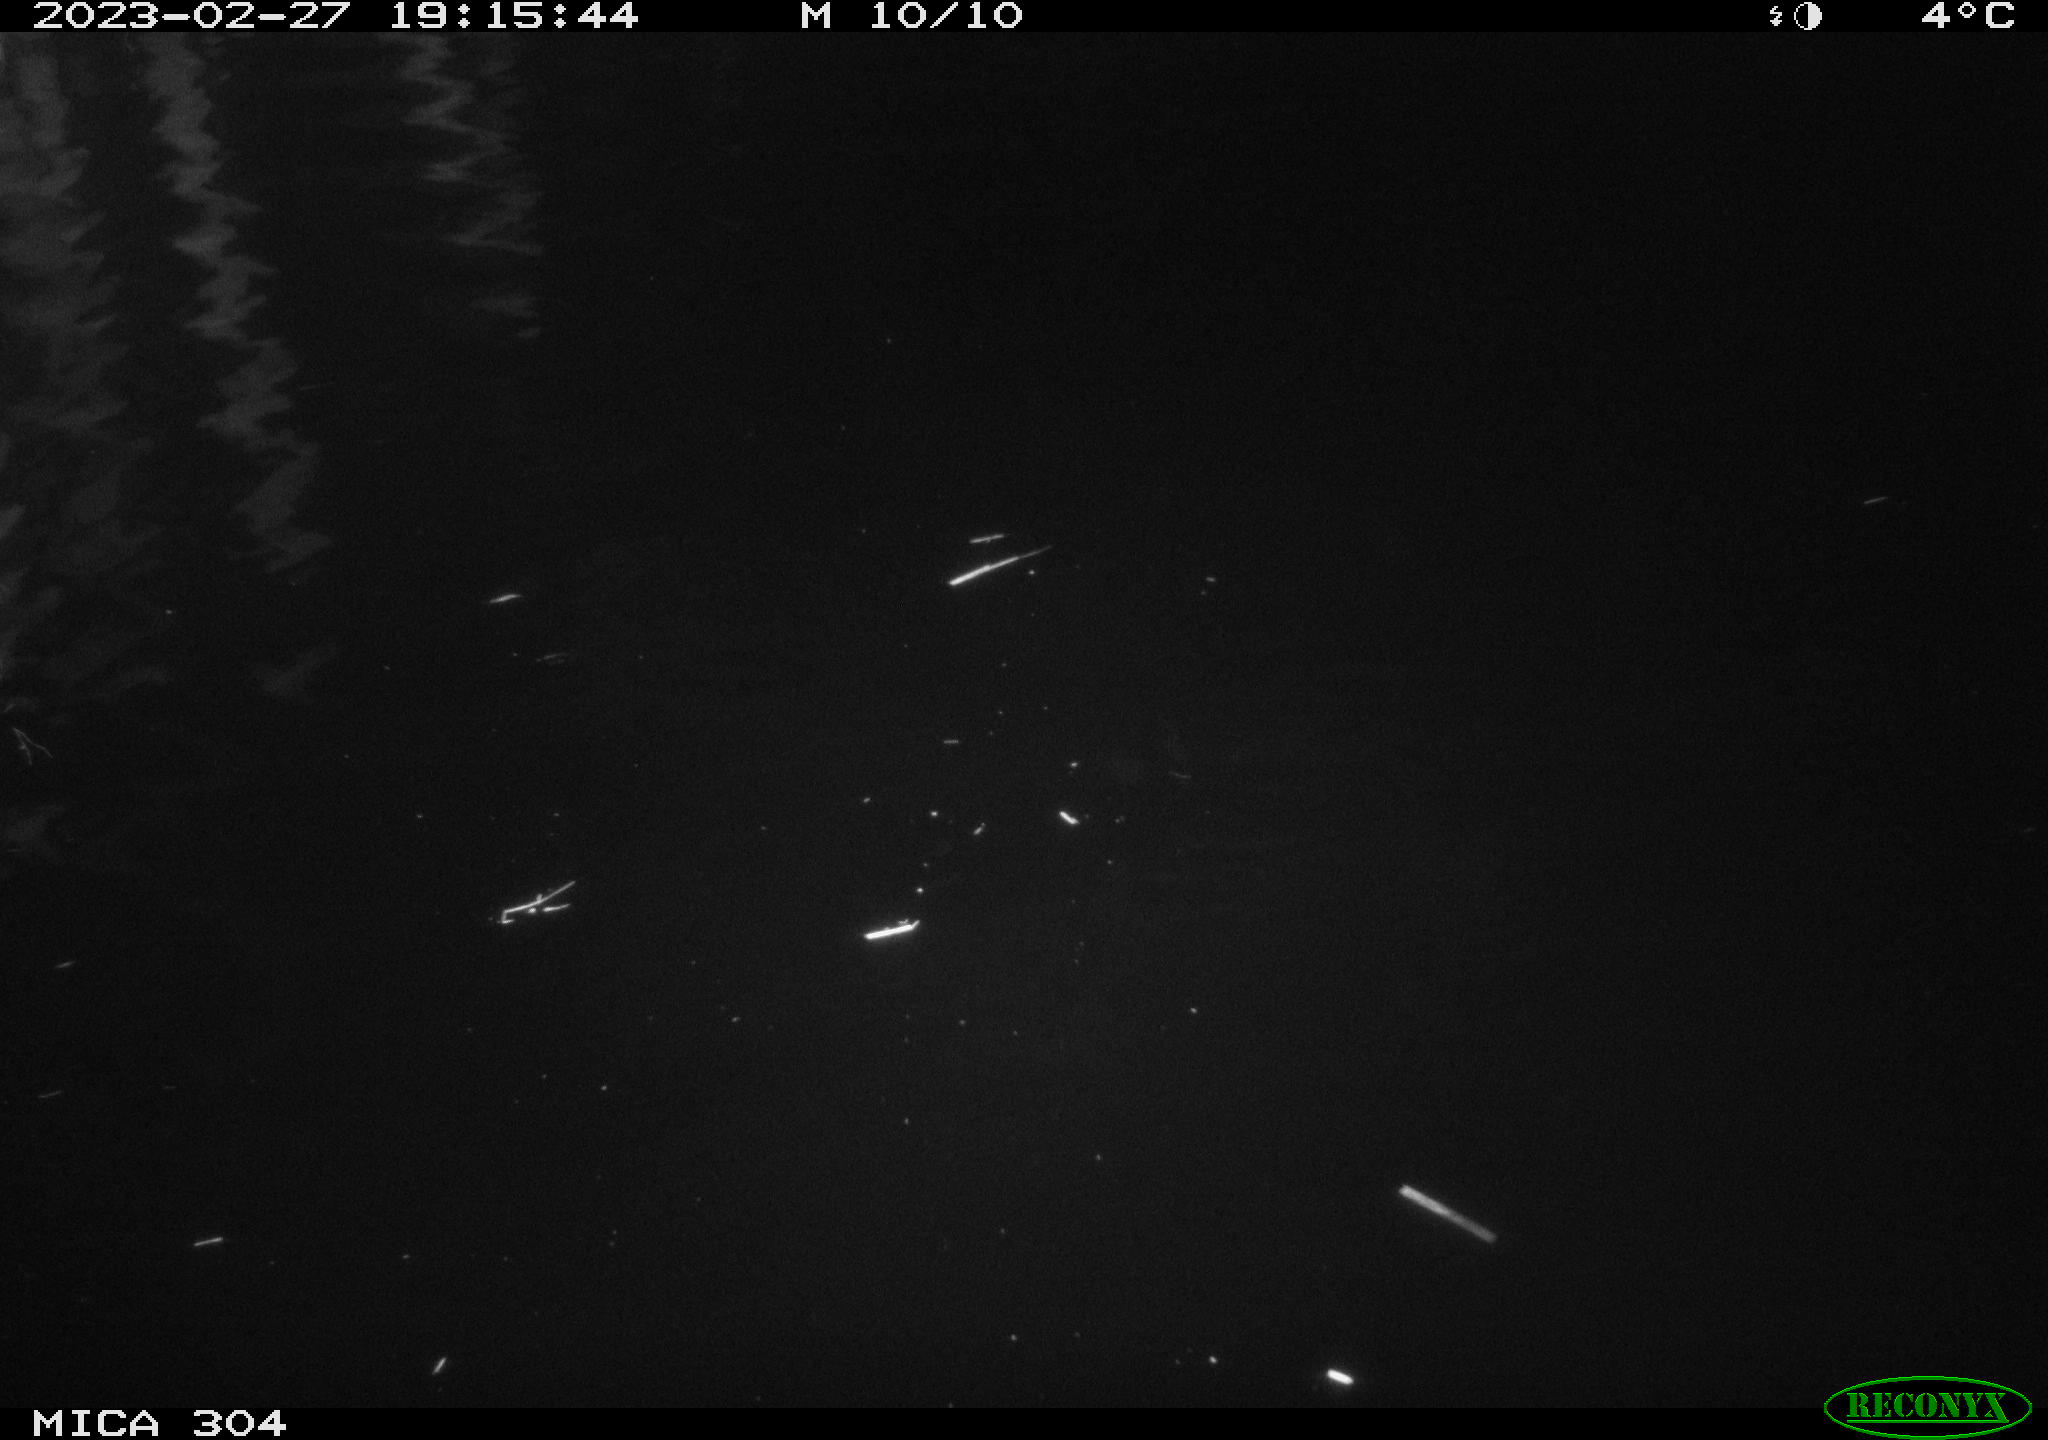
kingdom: Animalia
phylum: Chordata
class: Mammalia
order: Rodentia
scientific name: Rodentia
